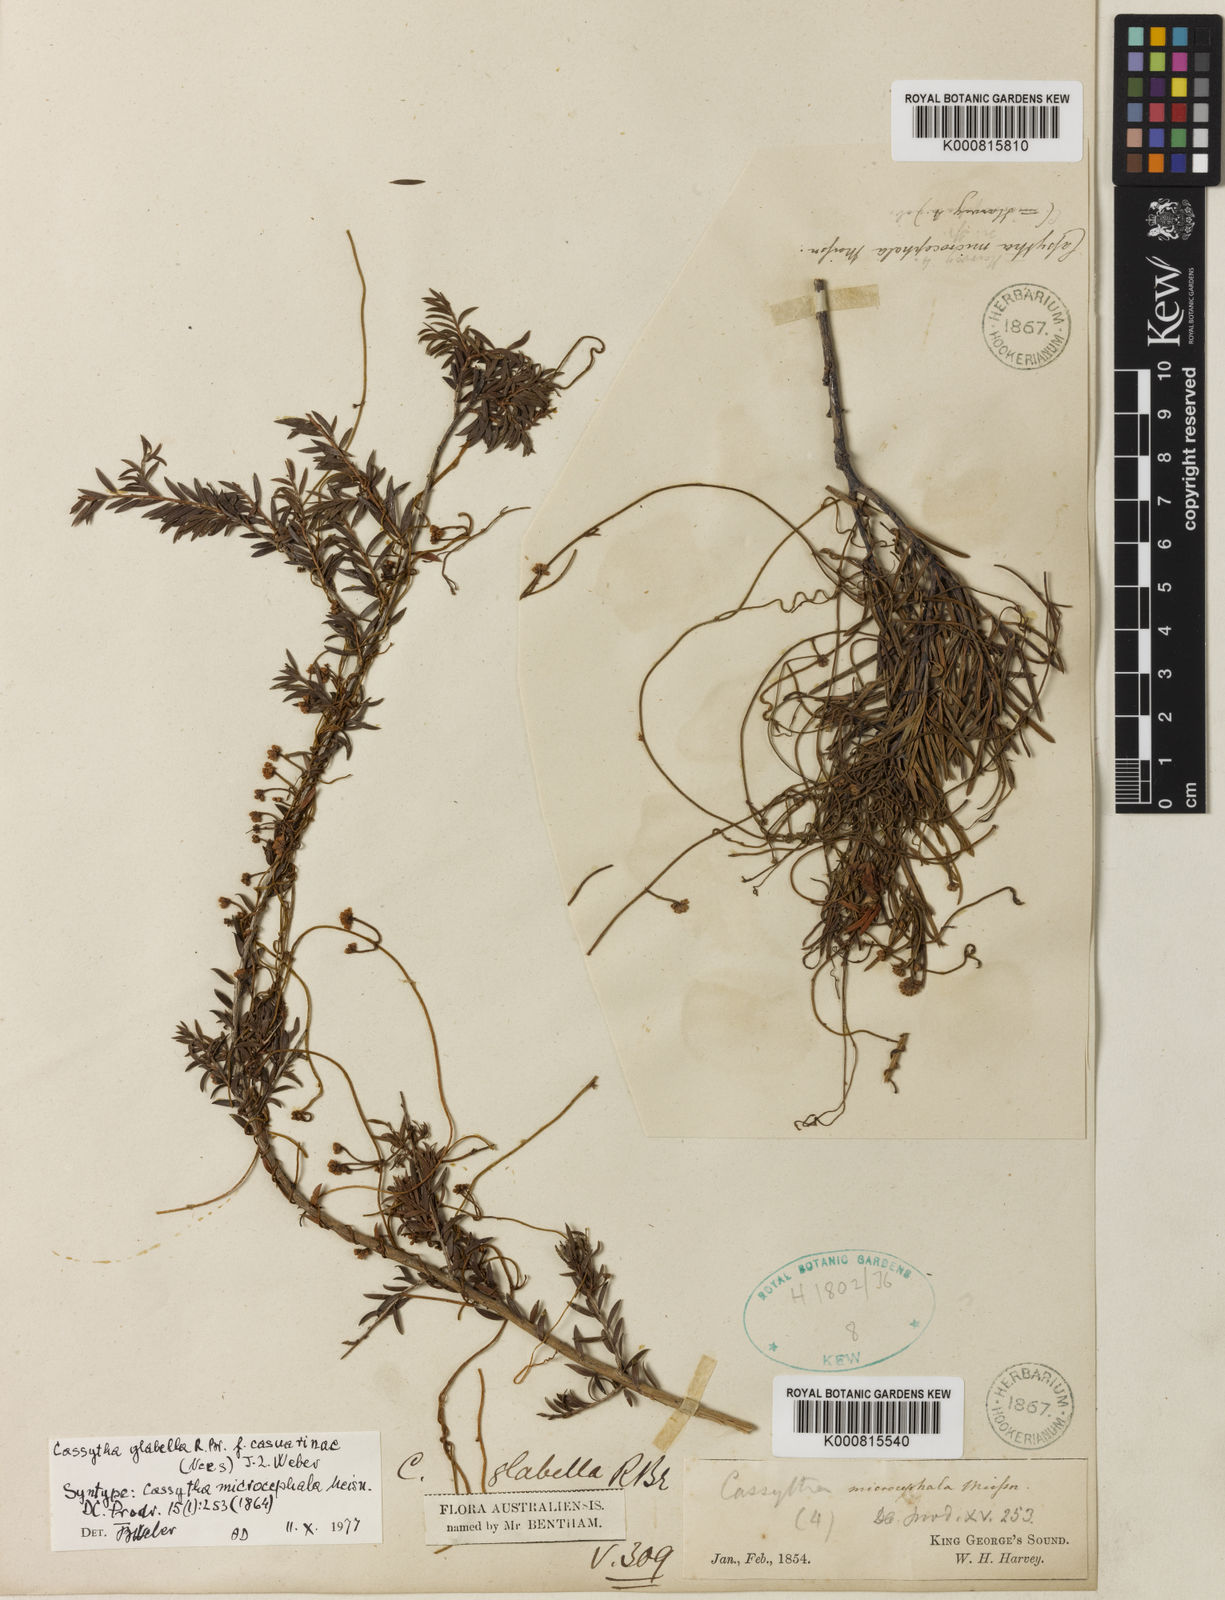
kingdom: Plantae
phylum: Tracheophyta
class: Magnoliopsida
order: Laurales
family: Lauraceae
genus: Cassytha
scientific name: Cassytha glabella
